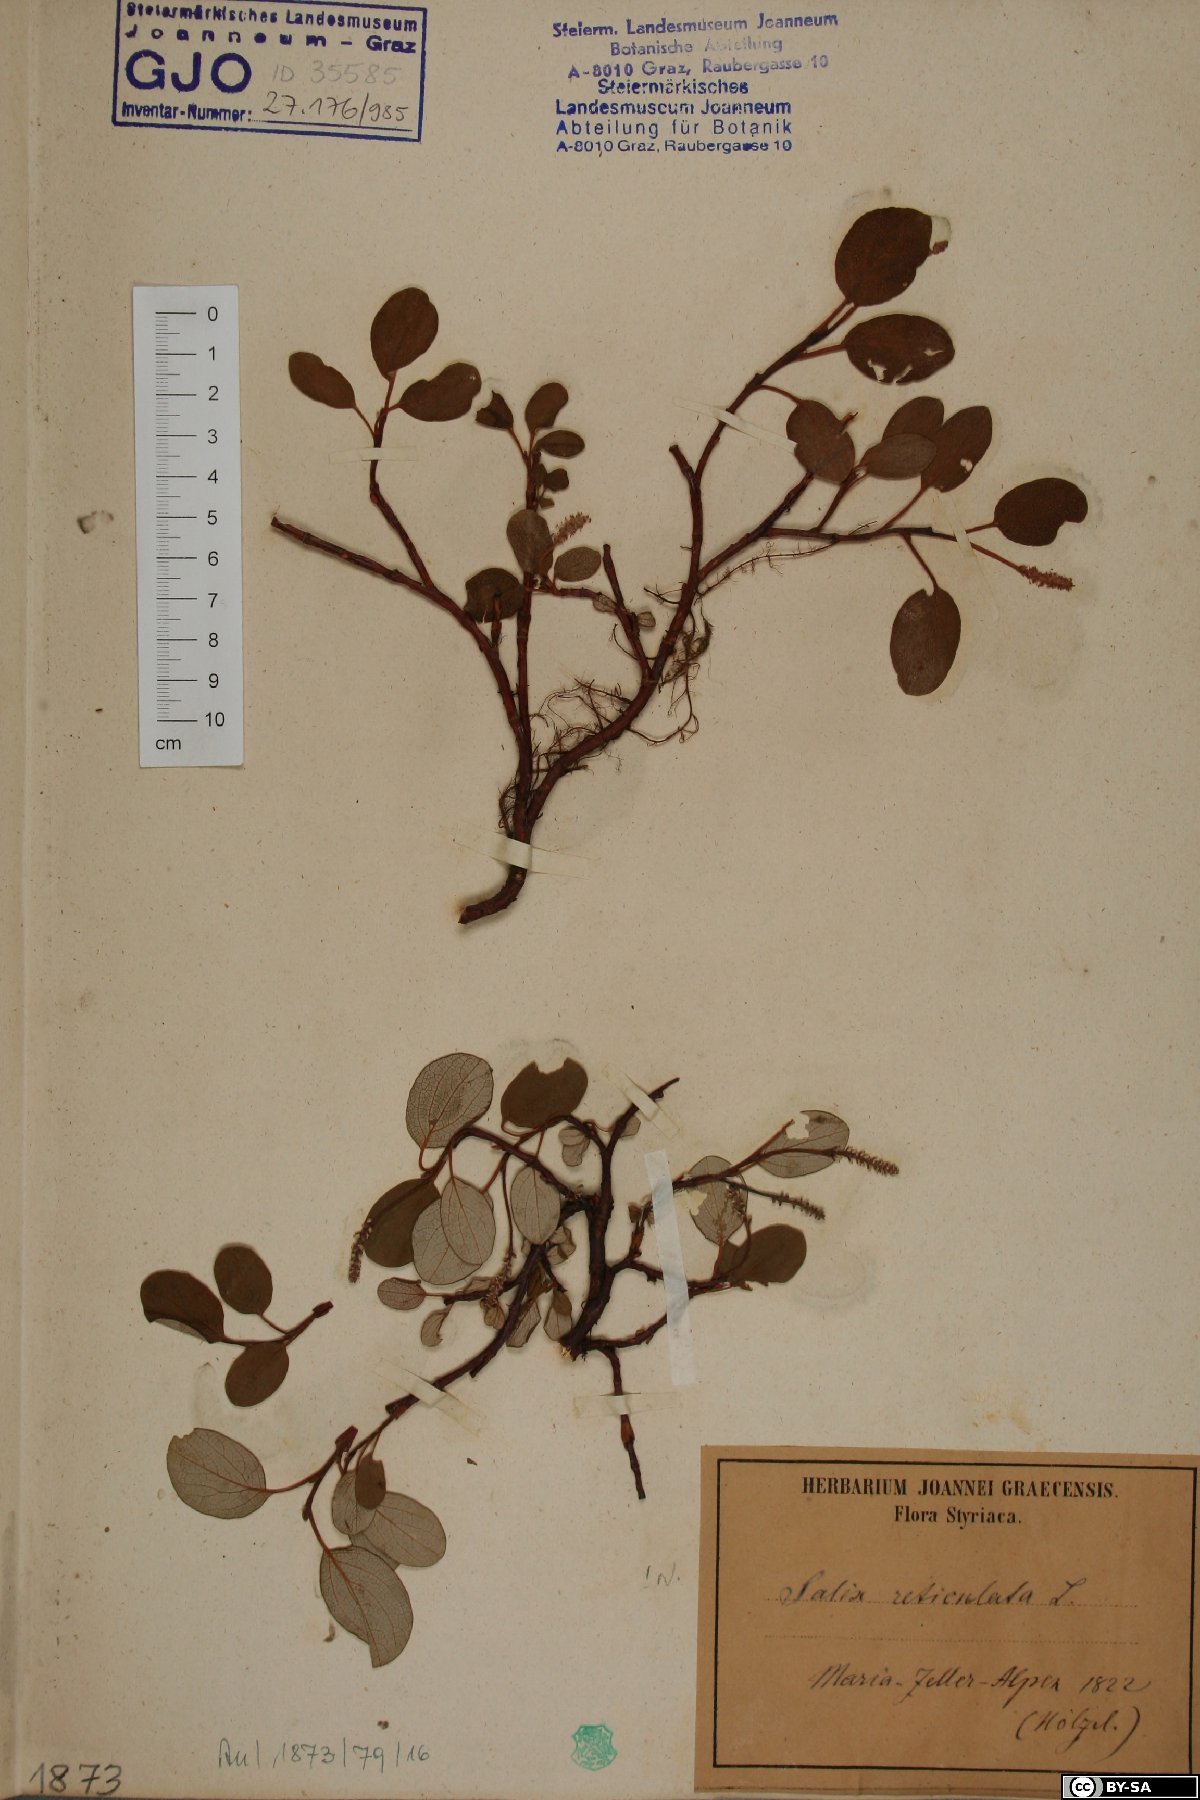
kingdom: Plantae
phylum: Tracheophyta
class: Magnoliopsida
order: Malpighiales
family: Salicaceae
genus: Salix
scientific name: Salix reticulata
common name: Net-leaved willow
